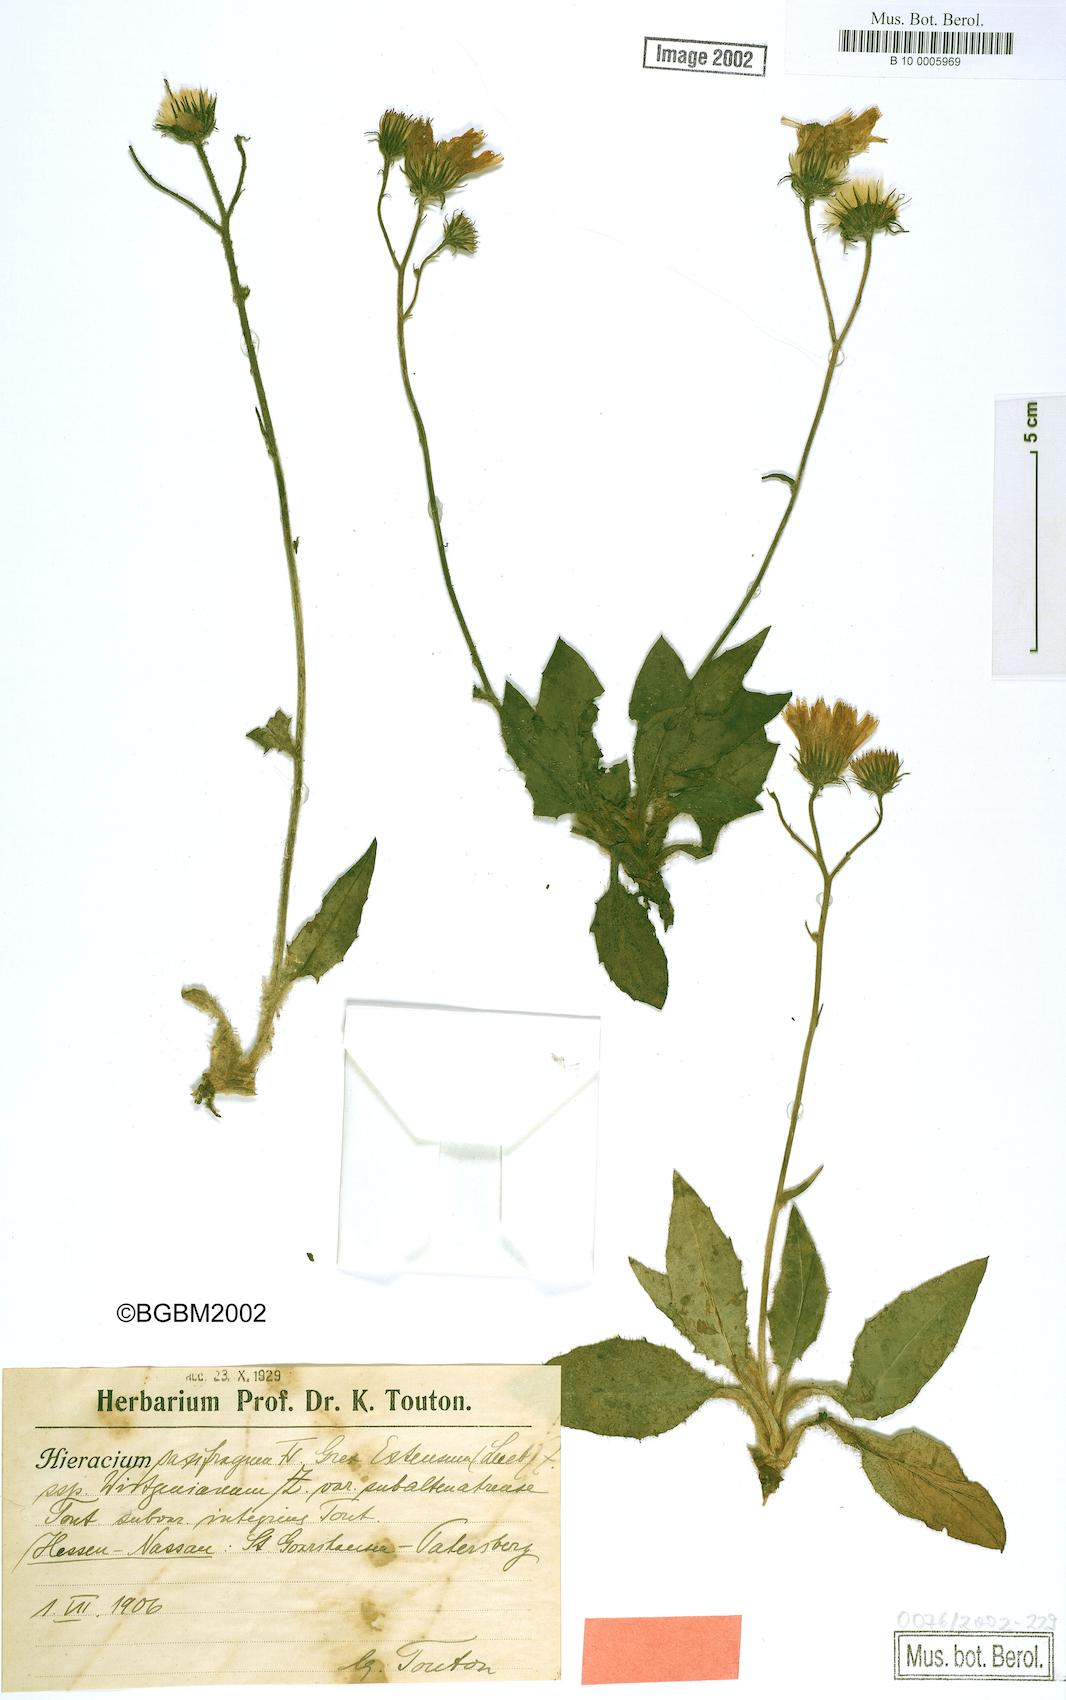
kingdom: Plantae
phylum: Tracheophyta
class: Magnoliopsida
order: Asterales
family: Asteraceae
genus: Hieracium
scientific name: Hieracium saxifragum
